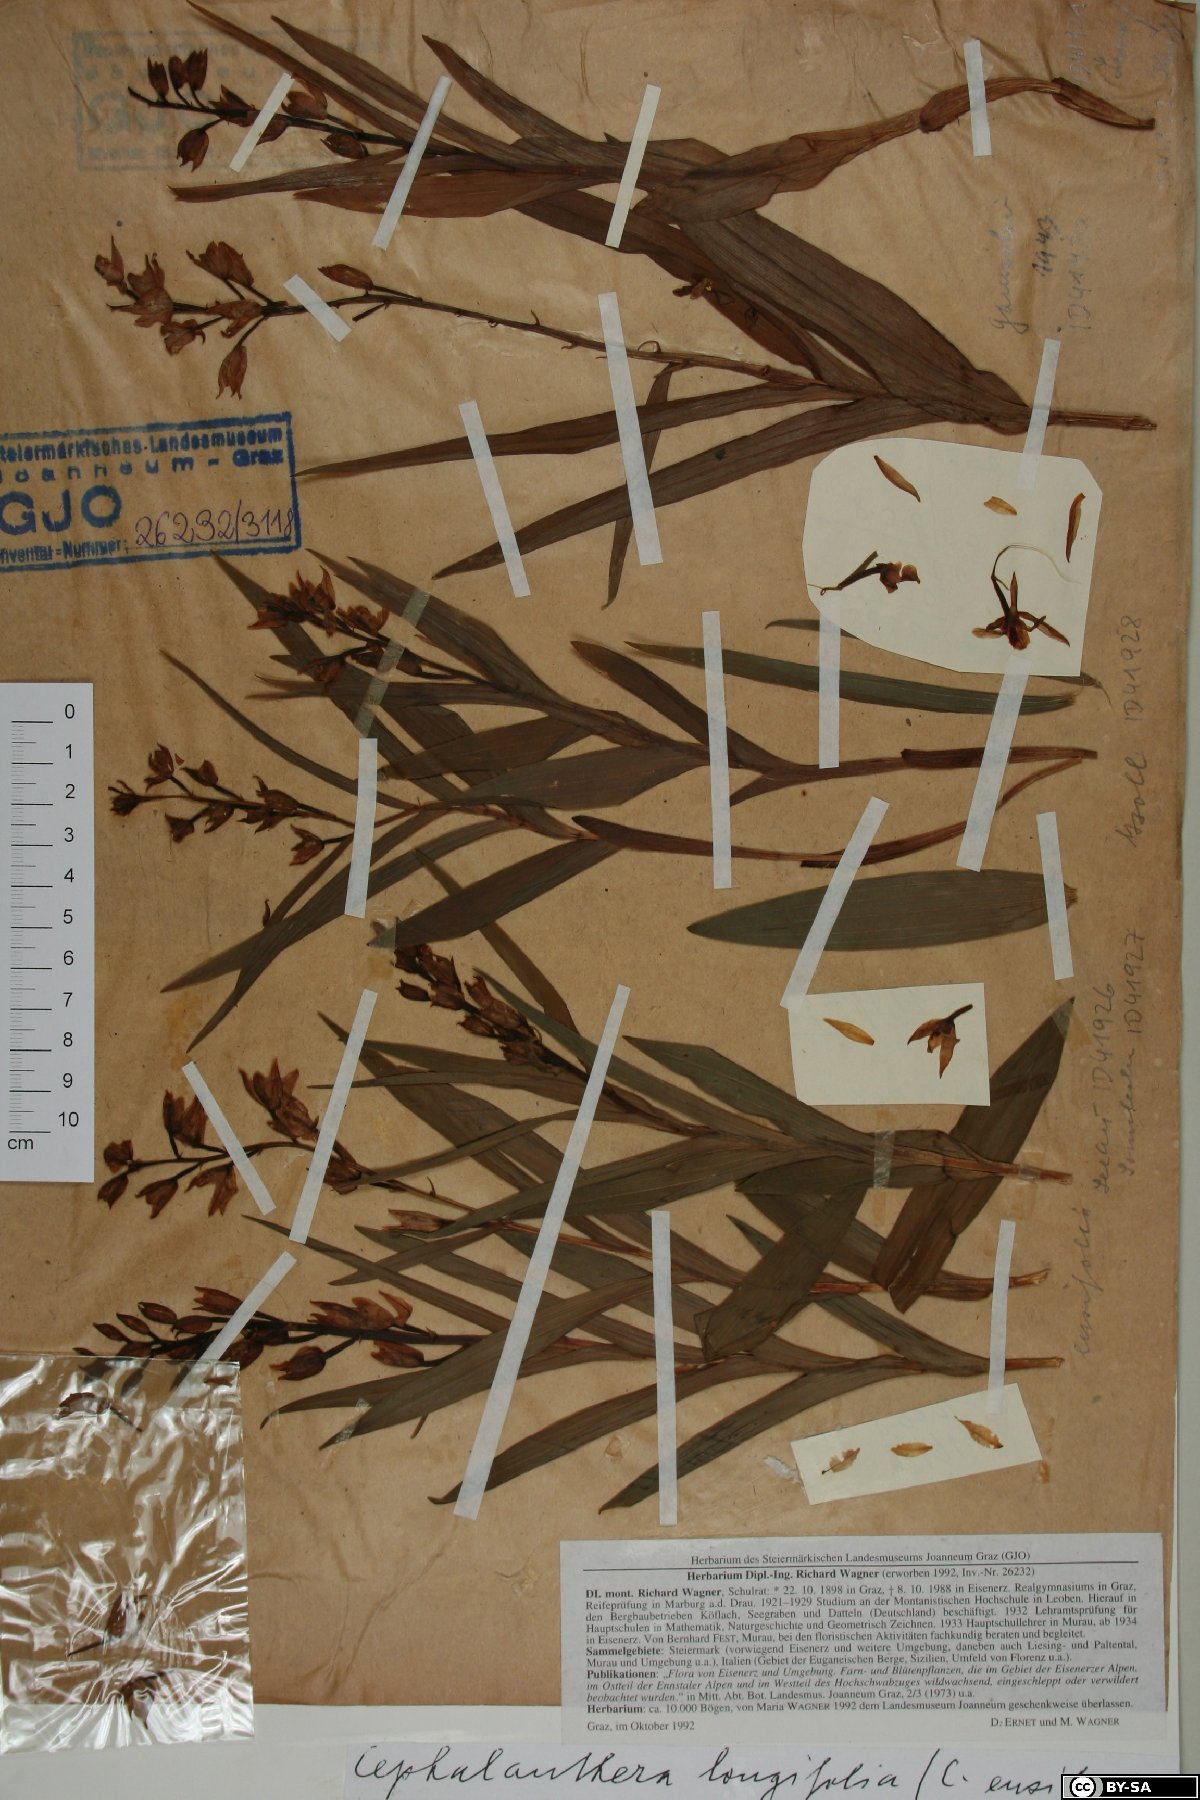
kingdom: Plantae
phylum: Tracheophyta
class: Liliopsida
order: Asparagales
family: Orchidaceae
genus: Cephalanthera
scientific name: Cephalanthera longifolia
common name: Narrow-leaved helleborine
